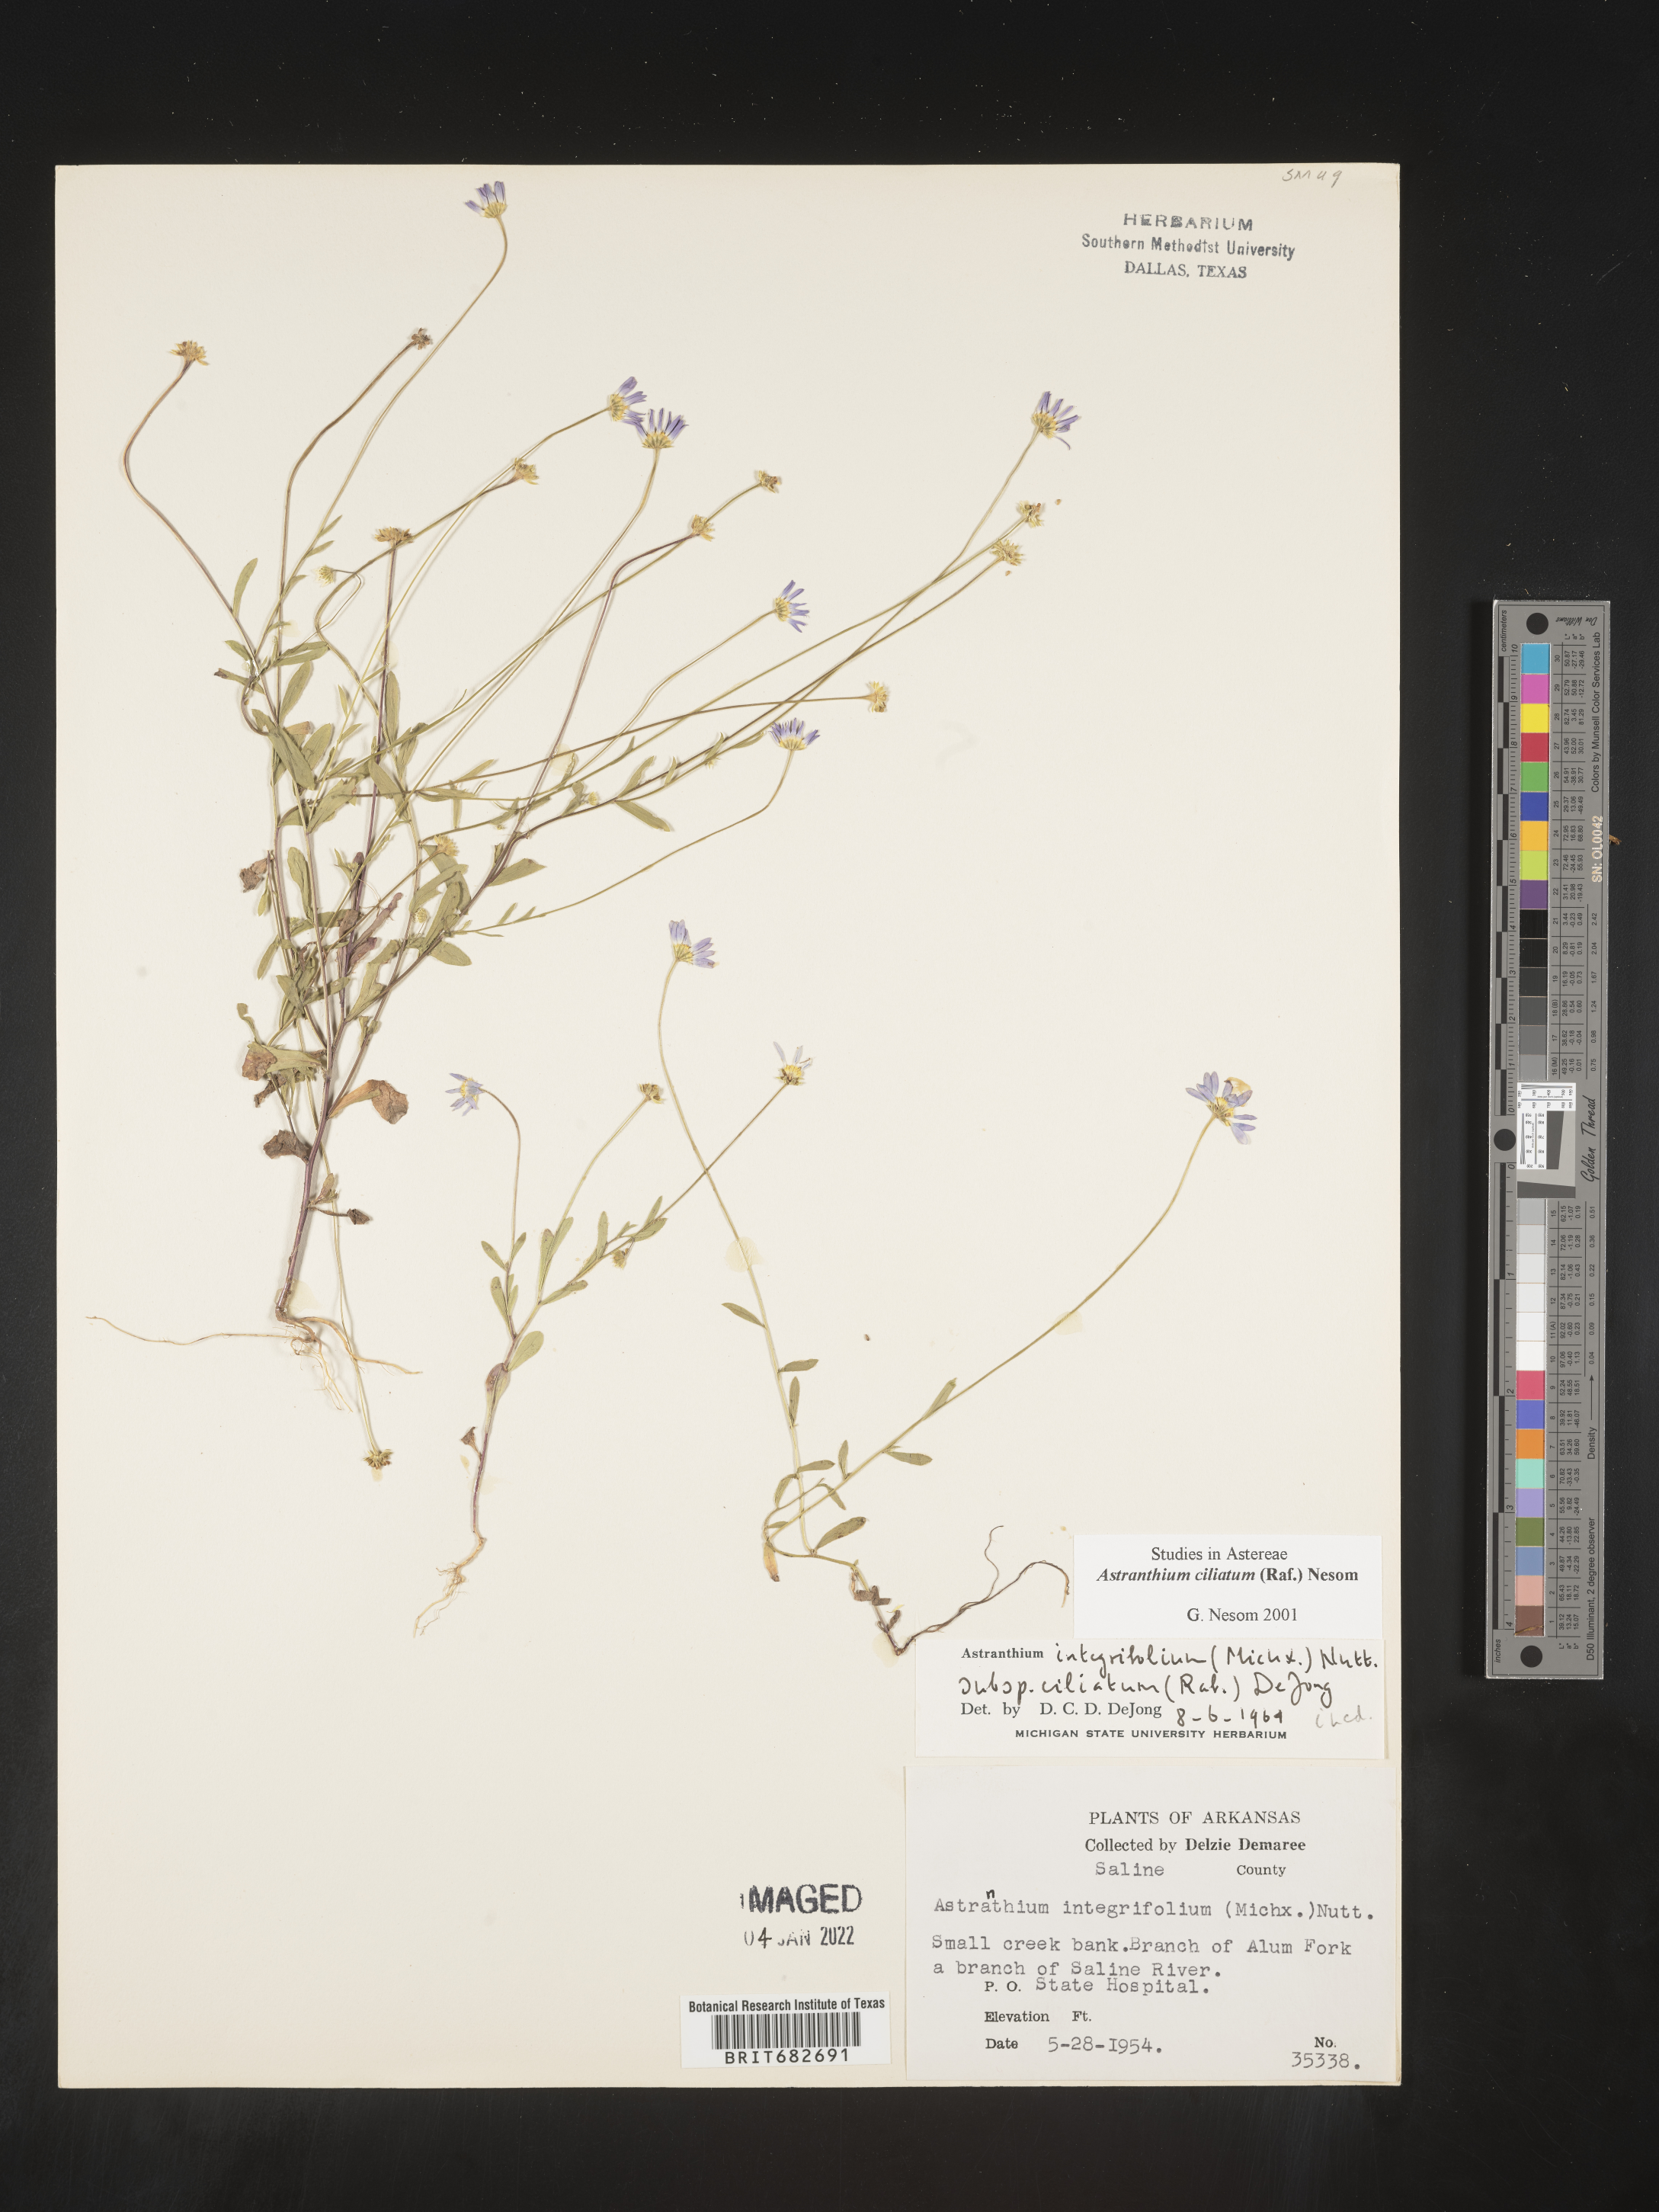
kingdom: Plantae
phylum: Tracheophyta
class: Magnoliopsida
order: Asterales
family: Asteraceae
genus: Astranthium
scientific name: Astranthium ciliatum
